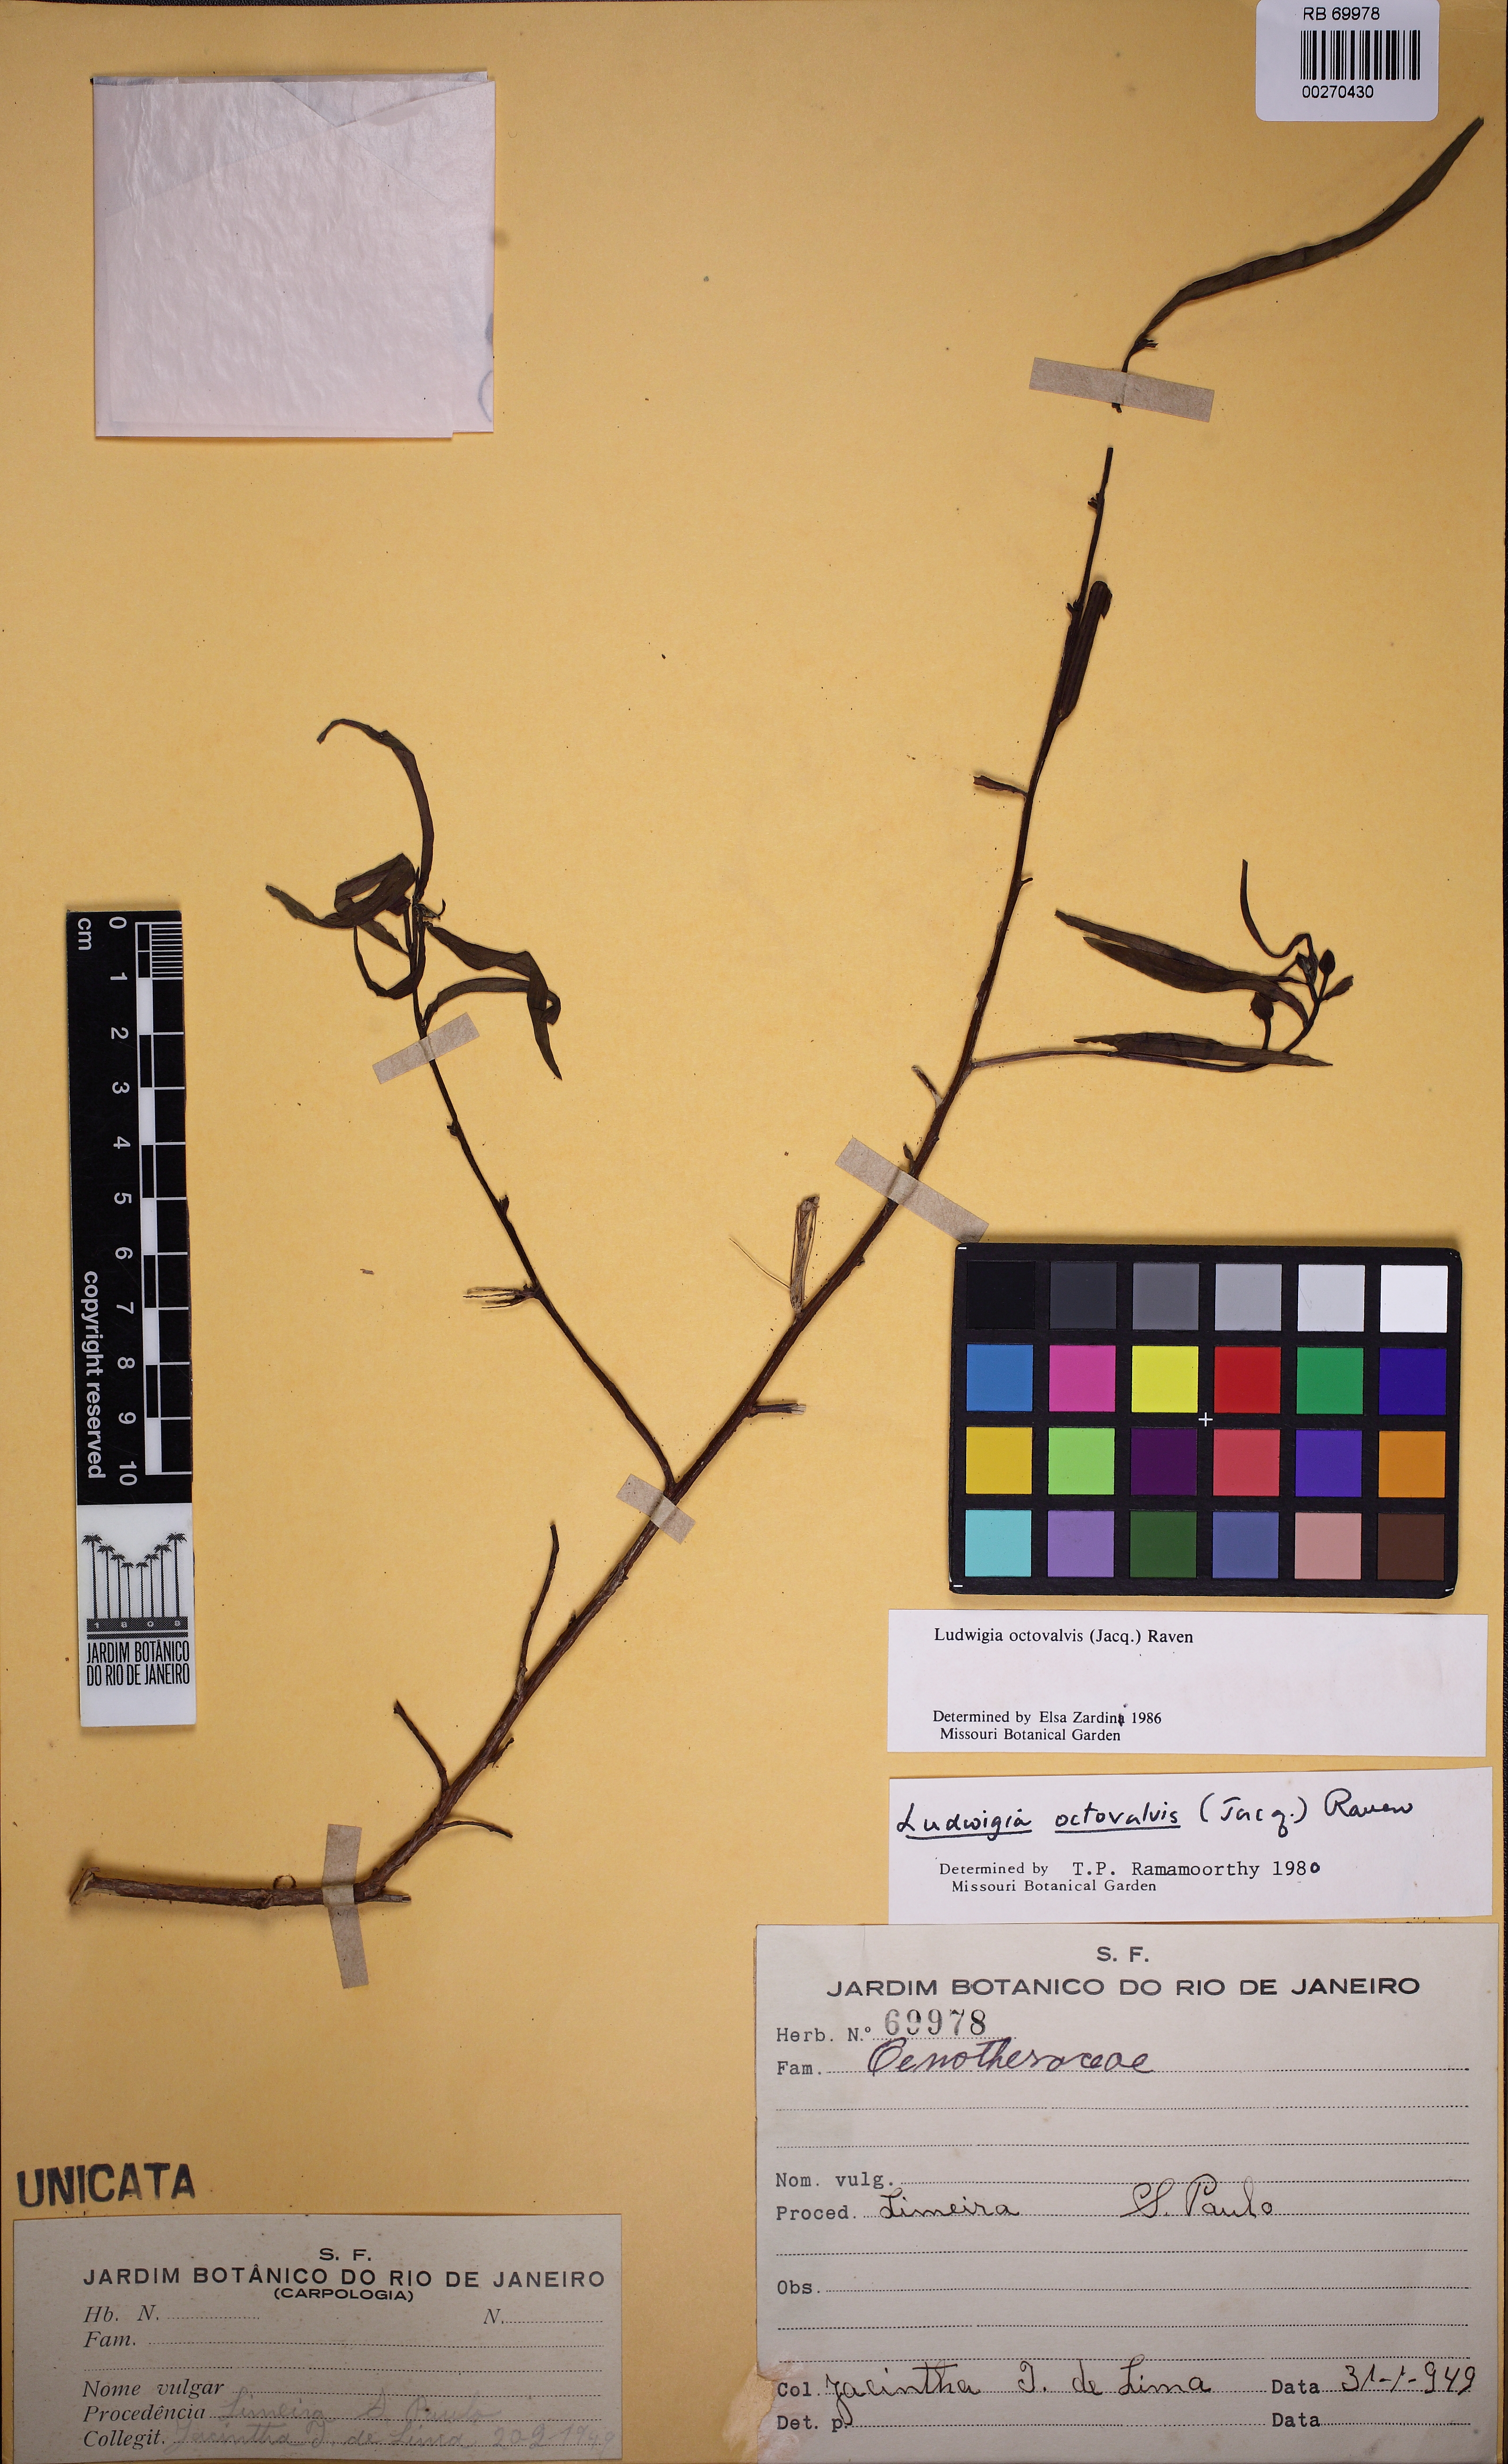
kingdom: Plantae
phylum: Tracheophyta
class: Magnoliopsida
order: Myrtales
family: Onagraceae
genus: Ludwigia
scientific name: Ludwigia octovalvis
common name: Water-primrose
